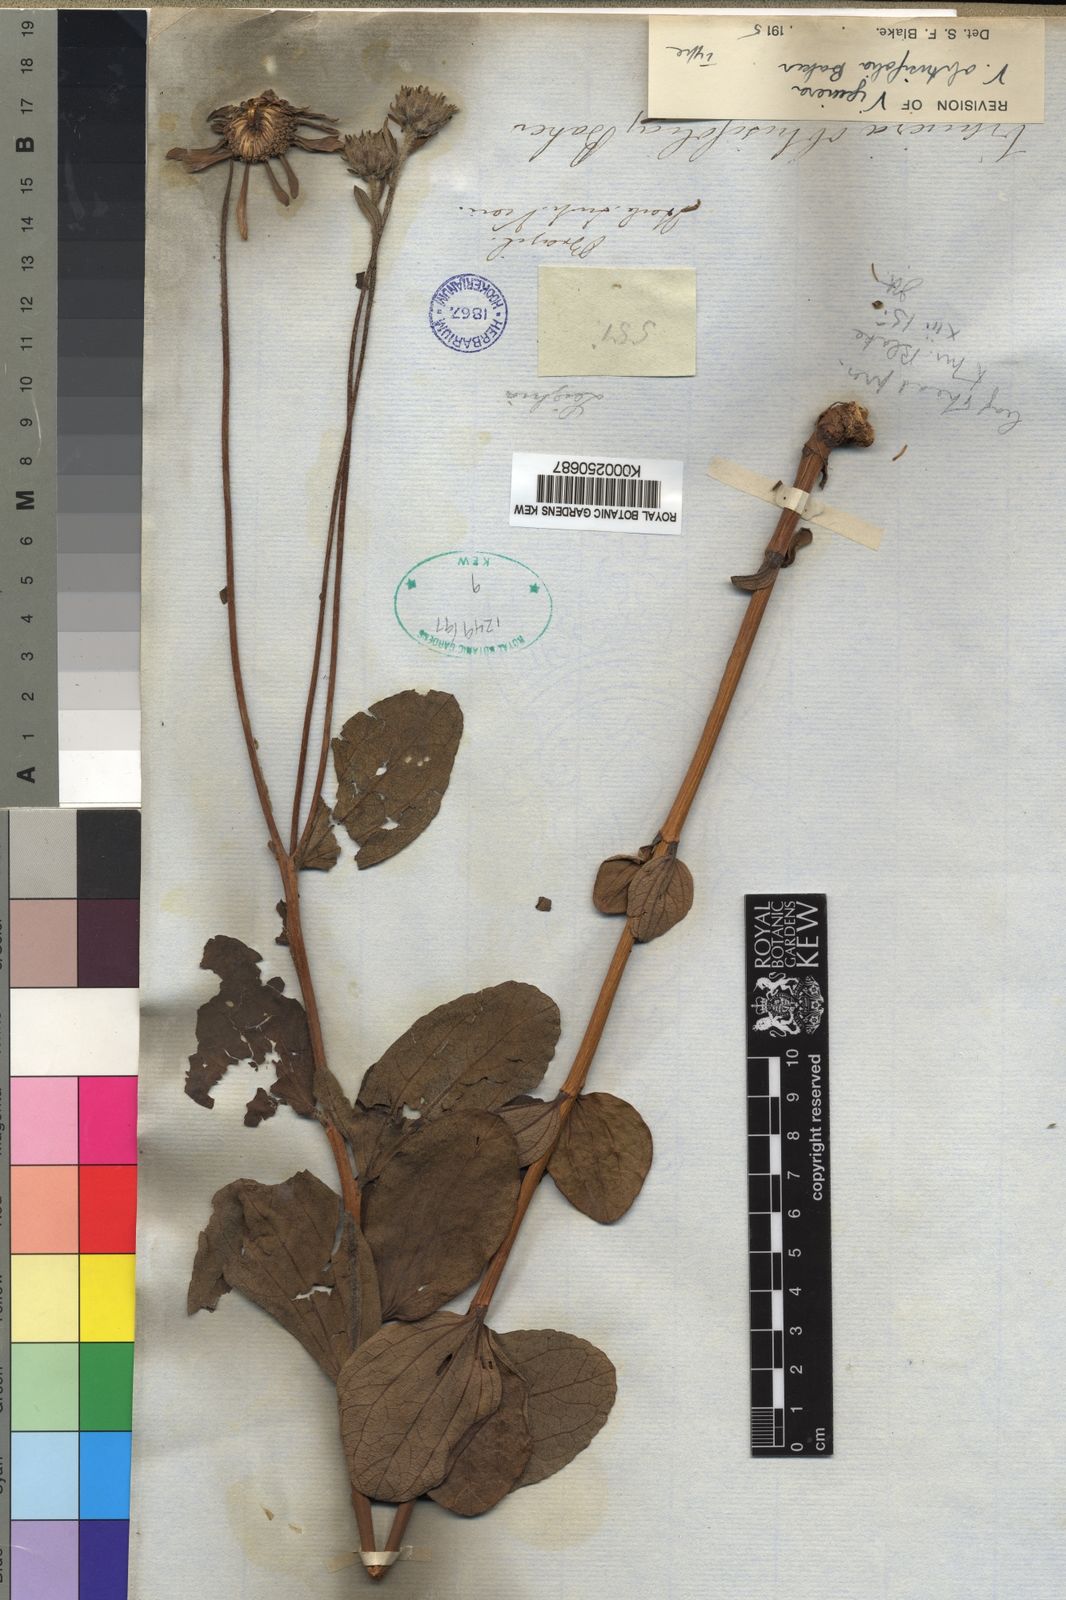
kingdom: Plantae
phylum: Tracheophyta
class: Magnoliopsida
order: Asterales
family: Asteraceae
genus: Aldama
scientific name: Aldama discolor
